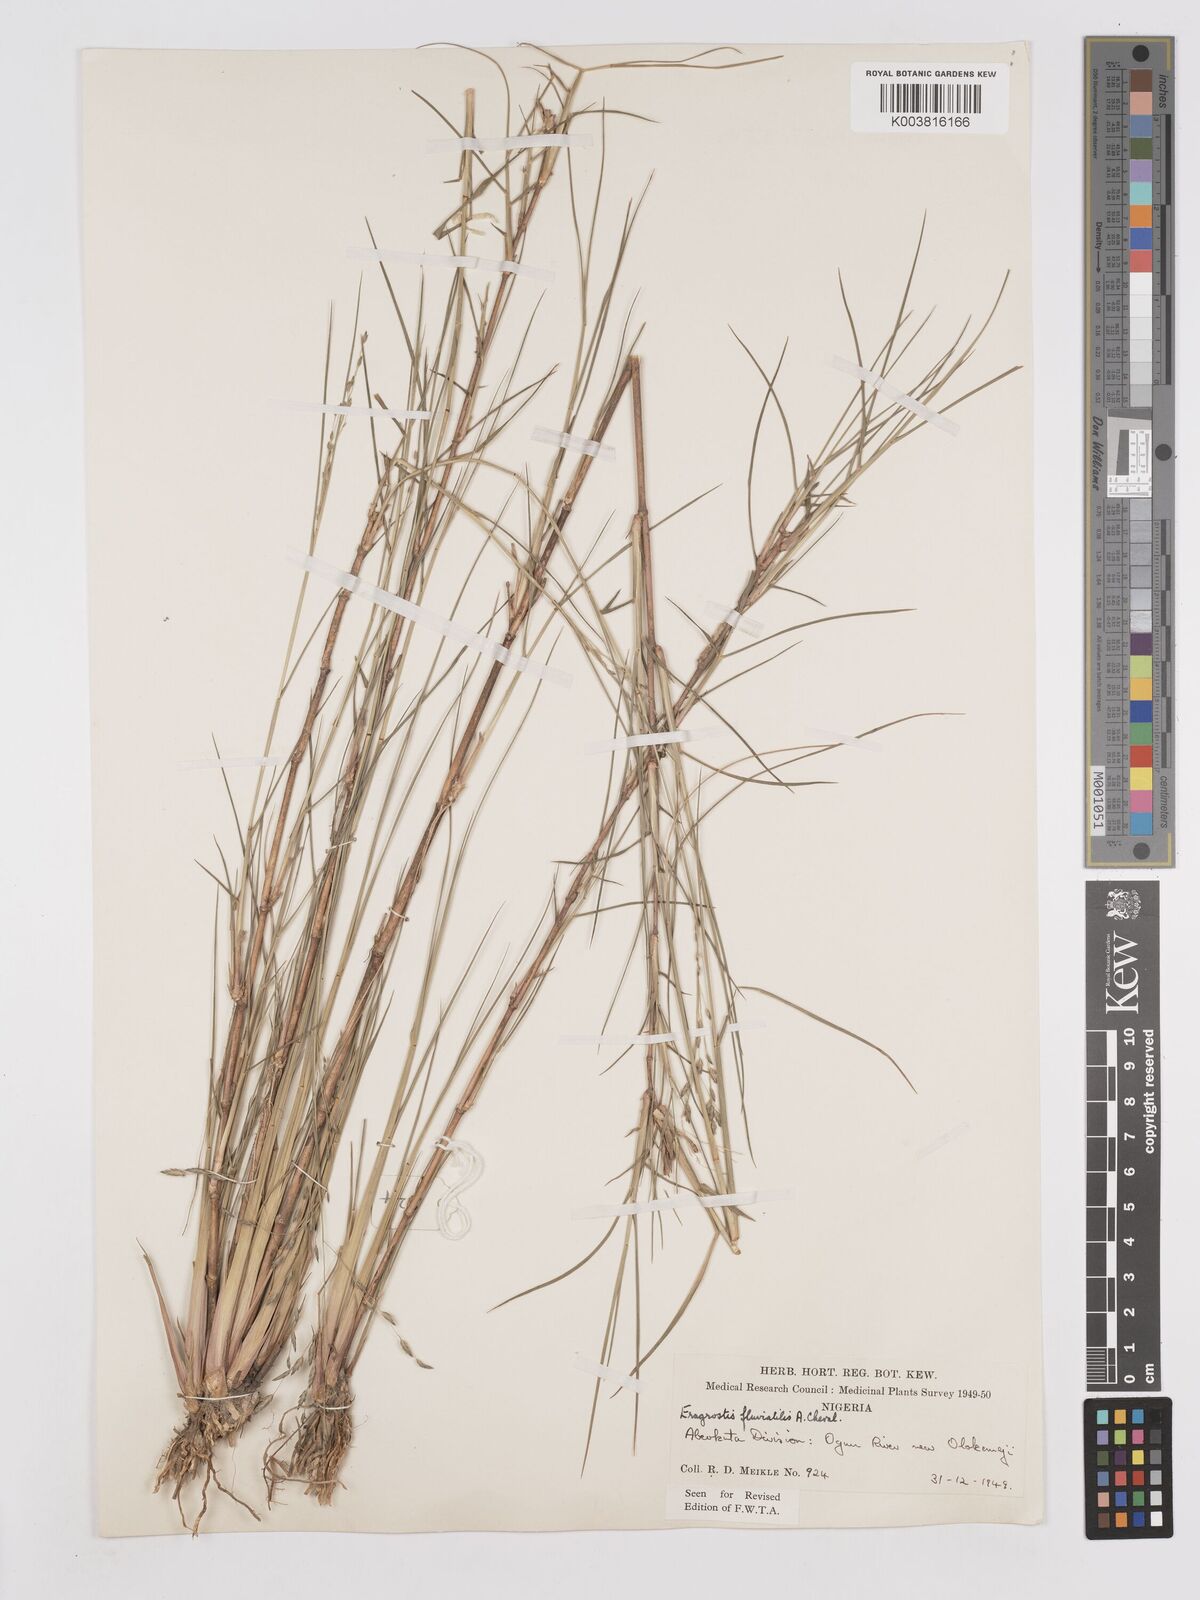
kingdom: Plantae
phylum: Tracheophyta
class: Liliopsida
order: Poales
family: Poaceae
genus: Eragrostis
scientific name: Eragrostis barteri
